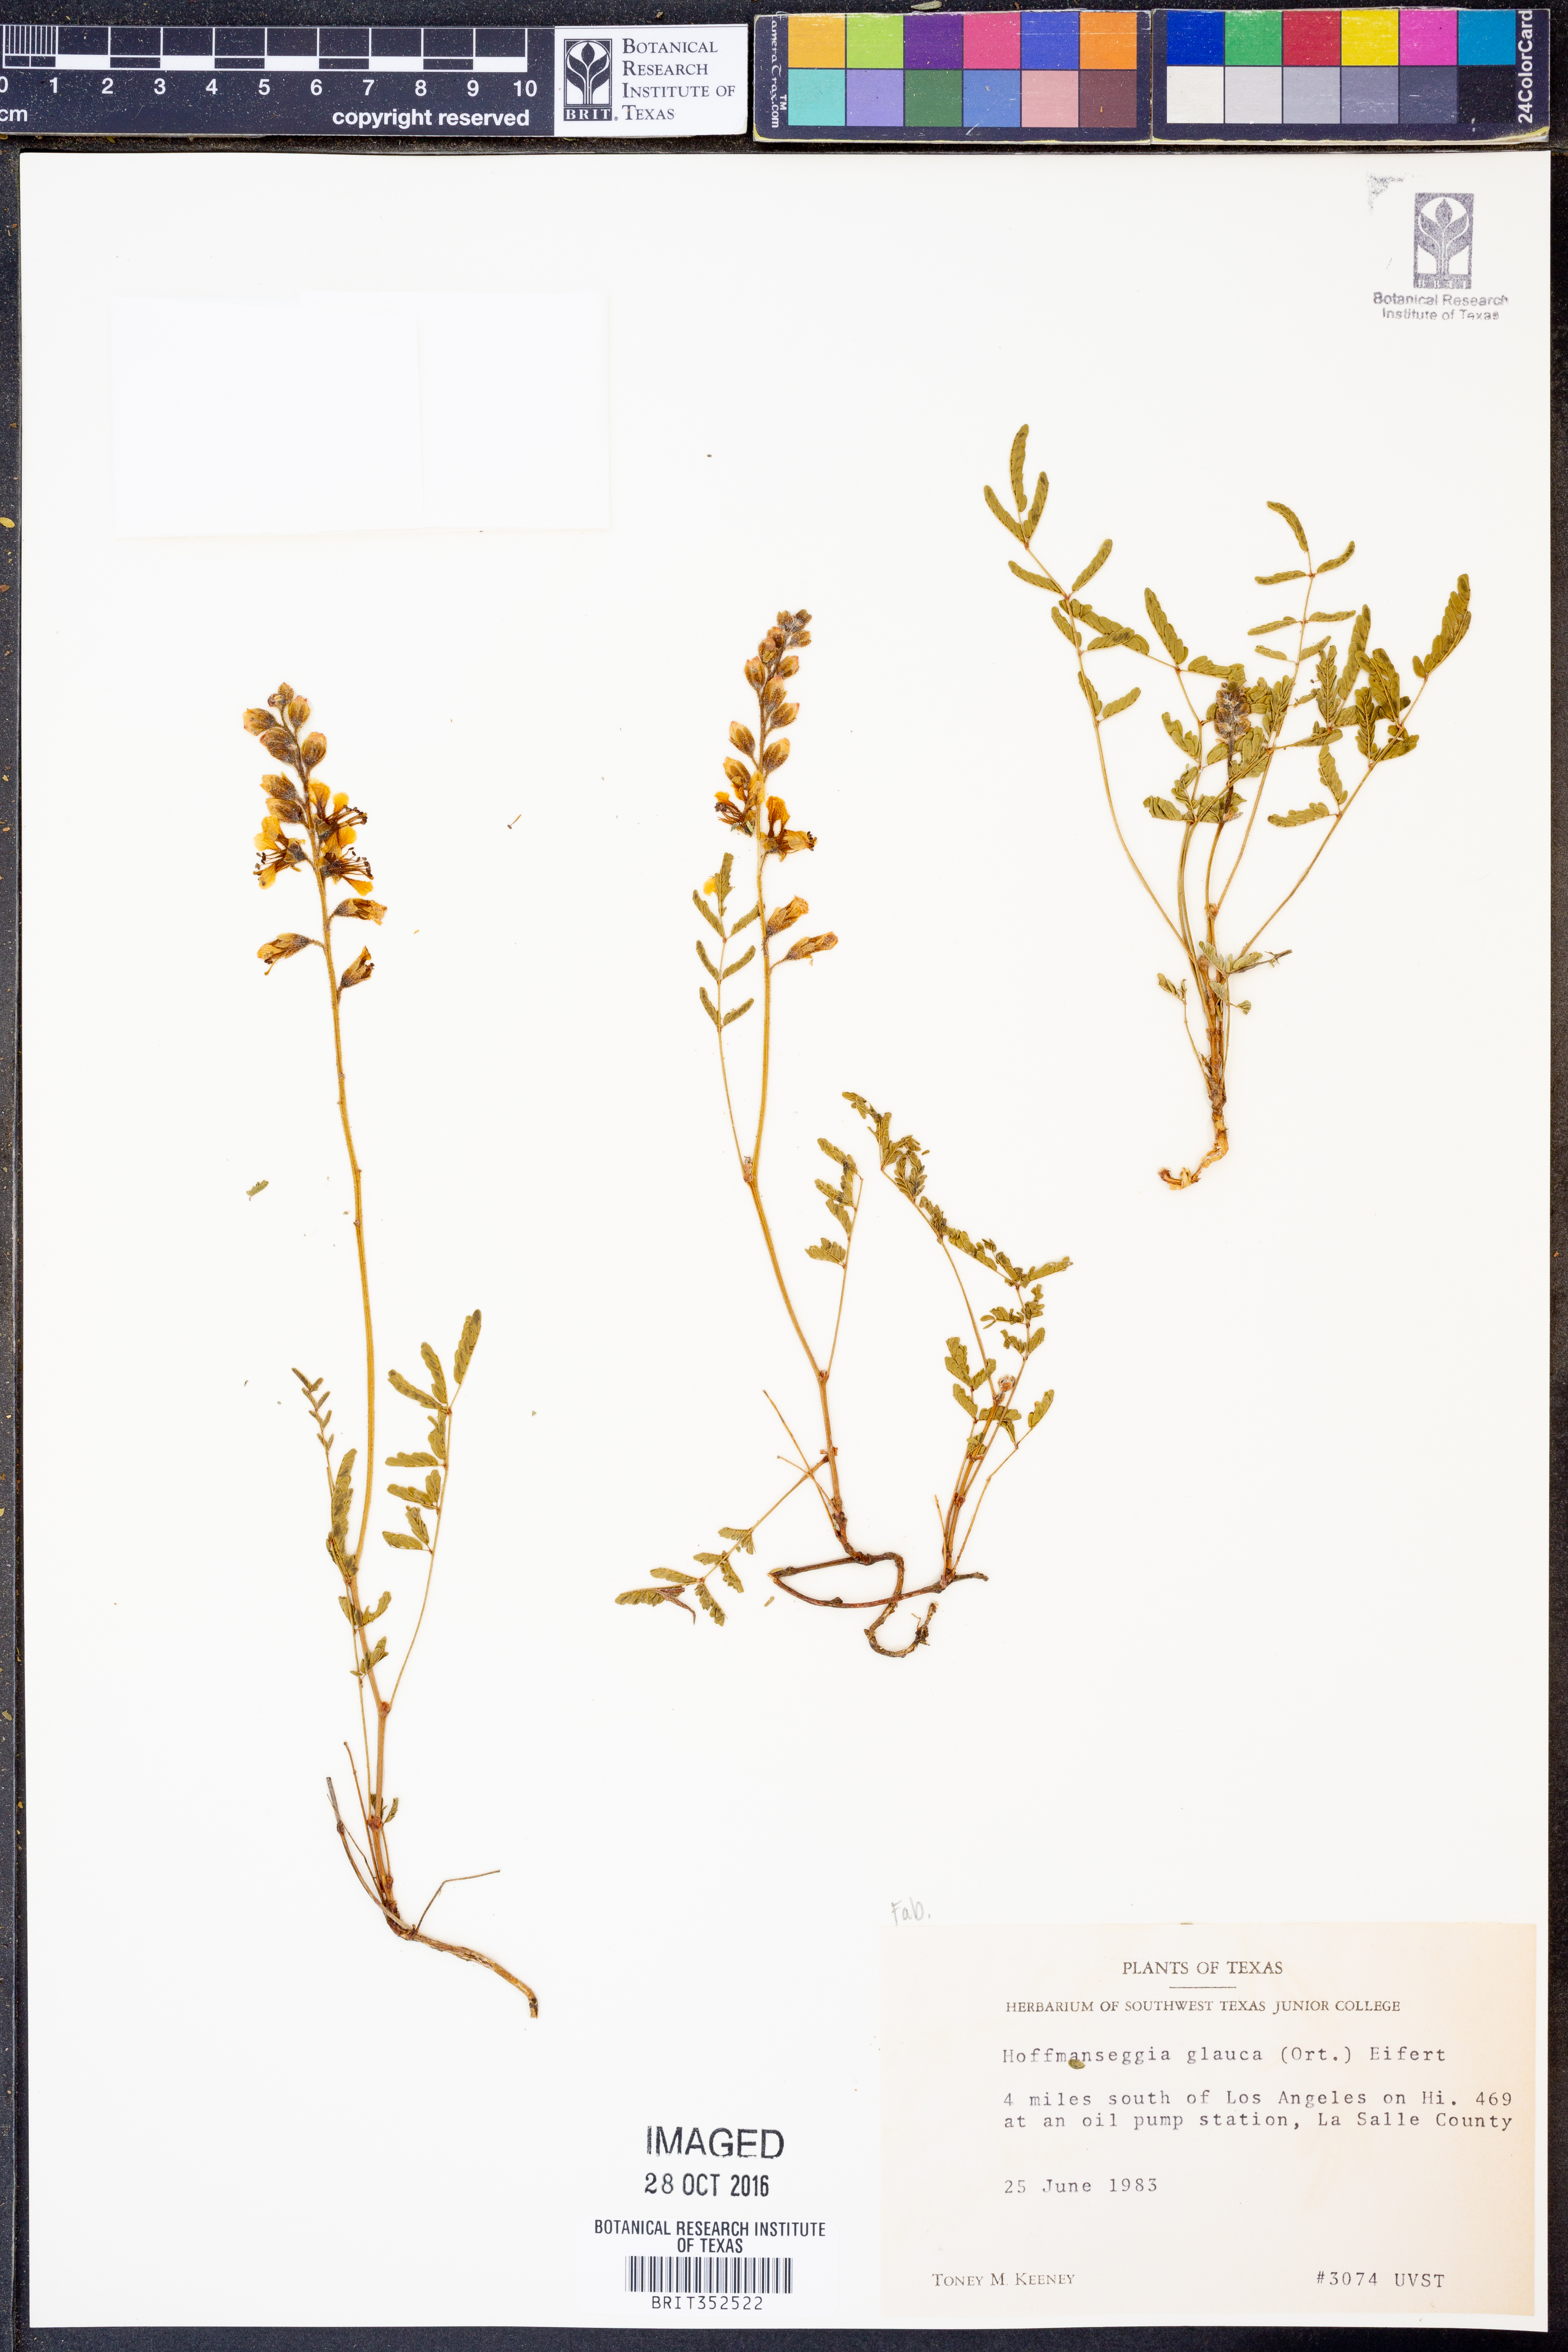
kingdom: Plantae
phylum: Tracheophyta
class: Magnoliopsida
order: Fabales
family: Fabaceae
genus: Hoffmannseggia
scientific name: Hoffmannseggia glauca
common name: Pignut
